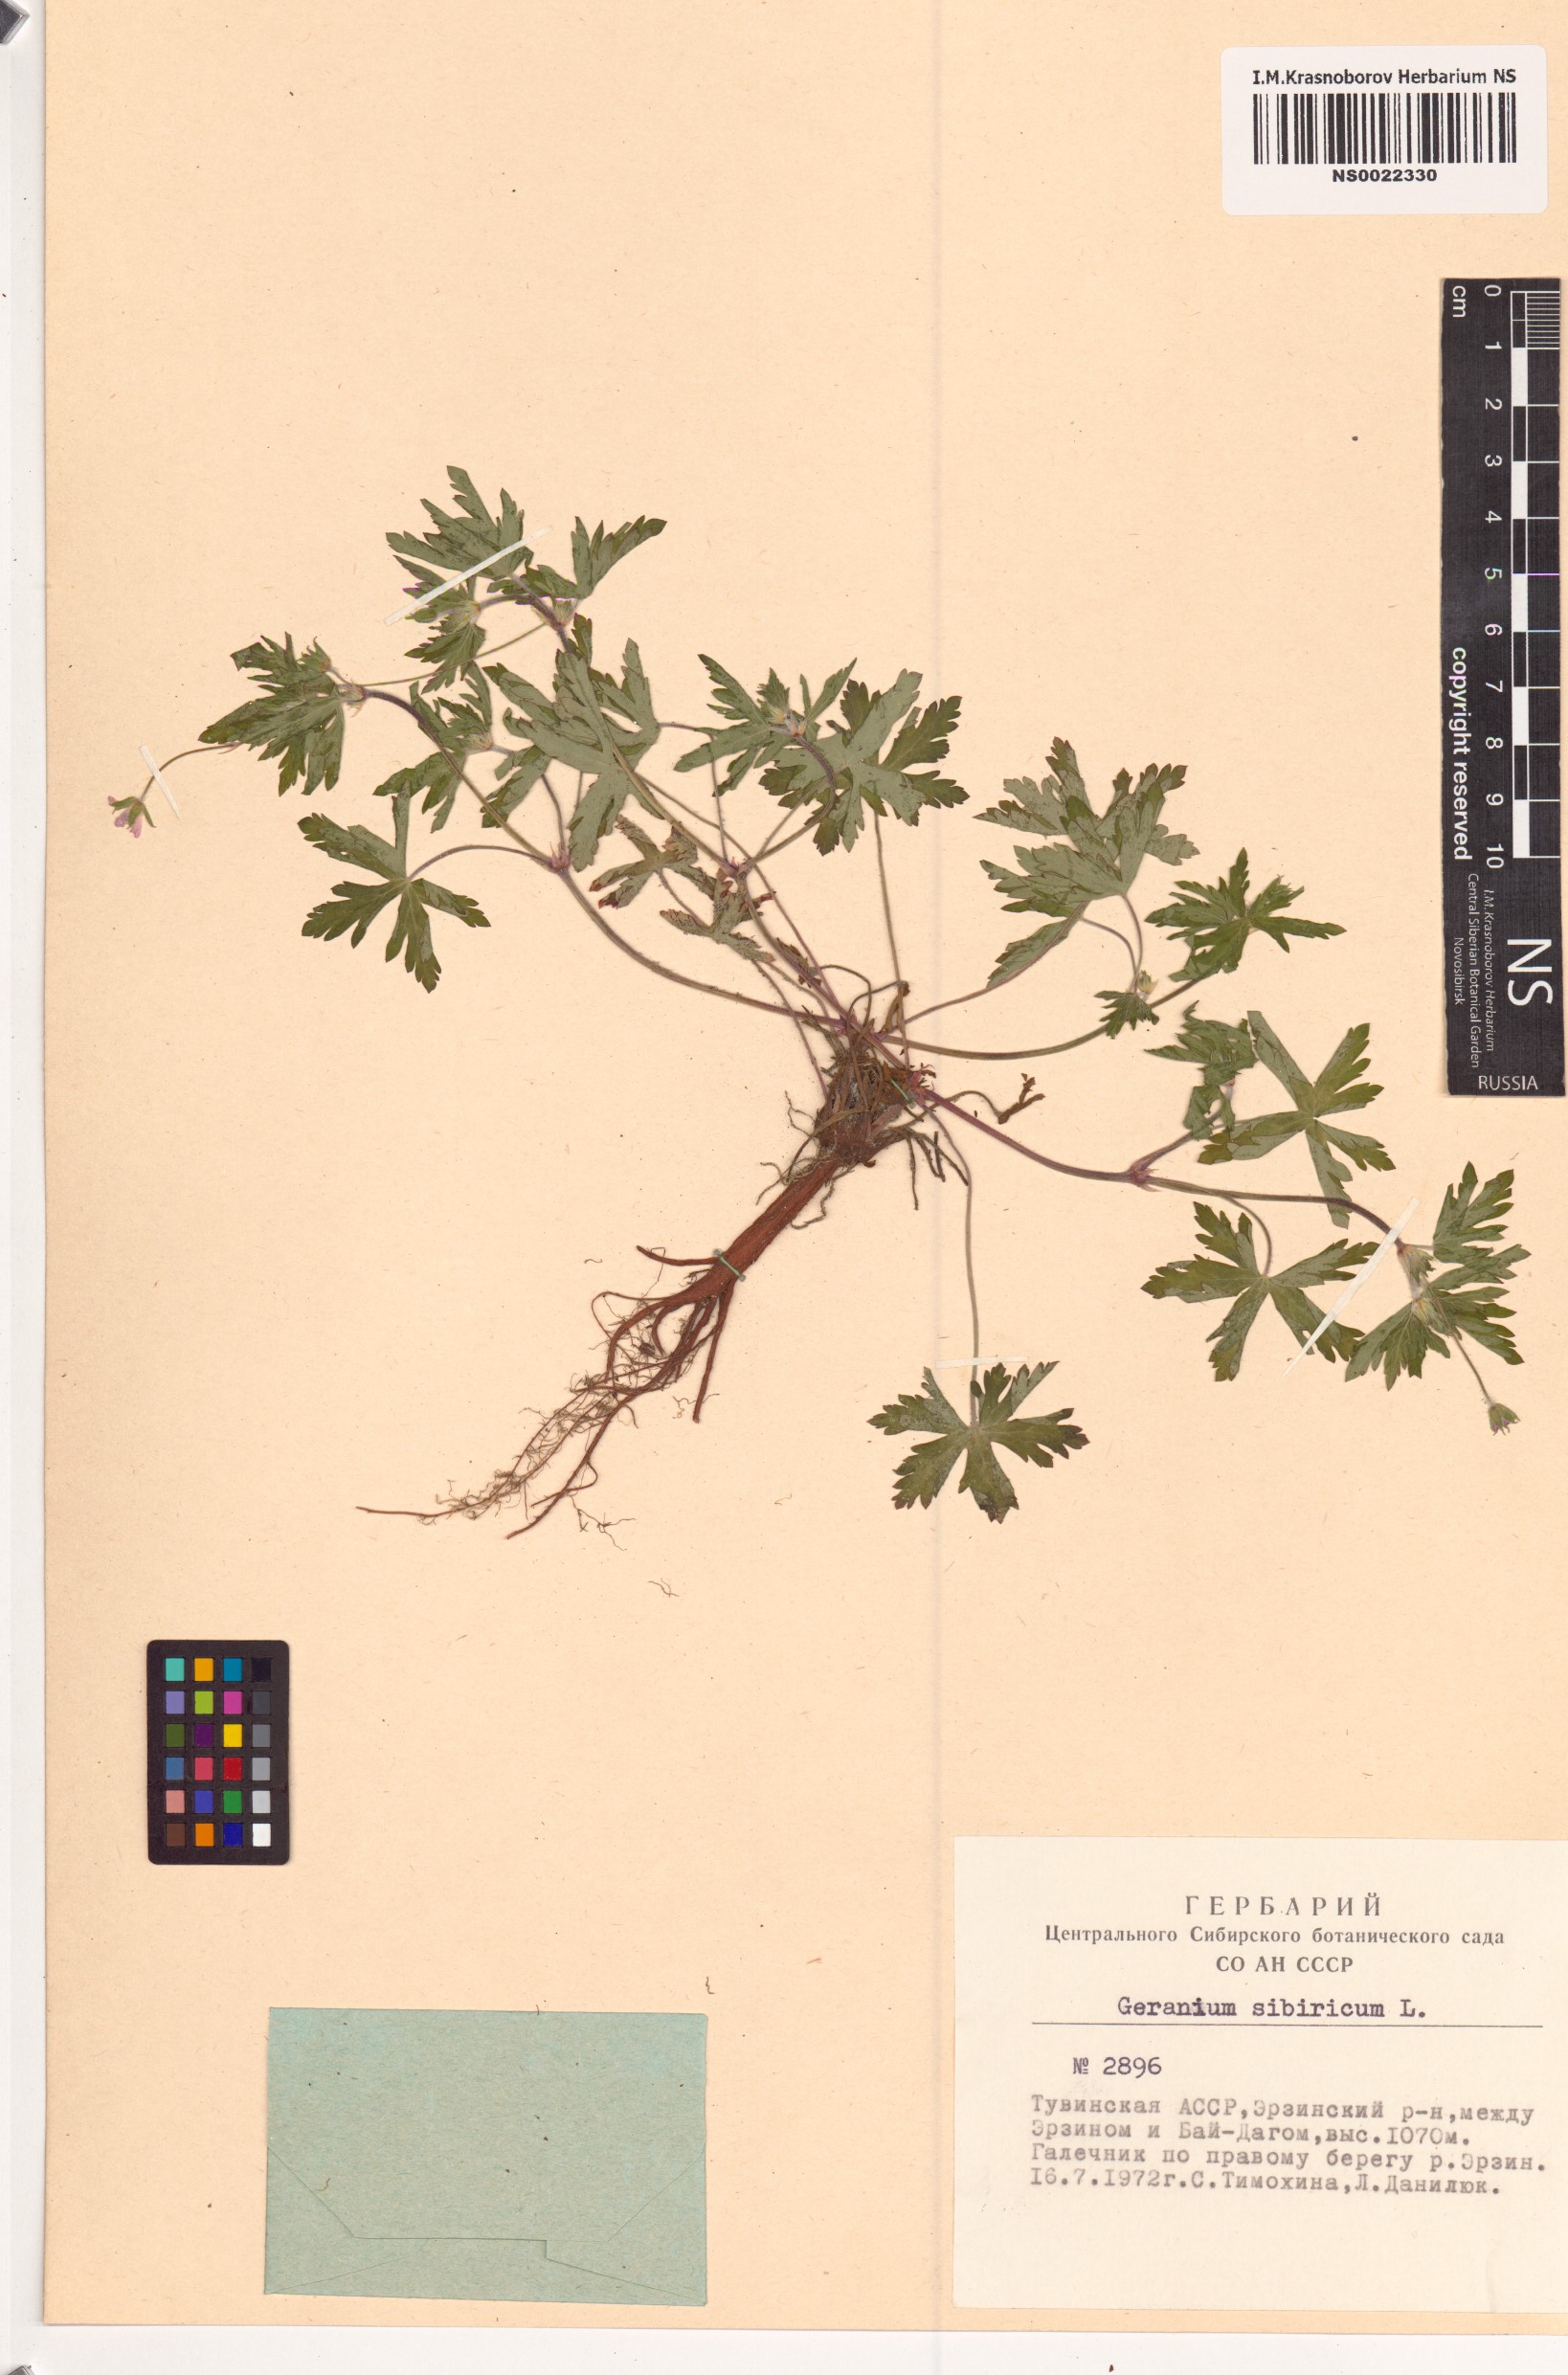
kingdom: Plantae
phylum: Tracheophyta
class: Magnoliopsida
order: Geraniales
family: Geraniaceae
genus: Geranium
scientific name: Geranium sibiricum
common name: Siberian crane's-bill
